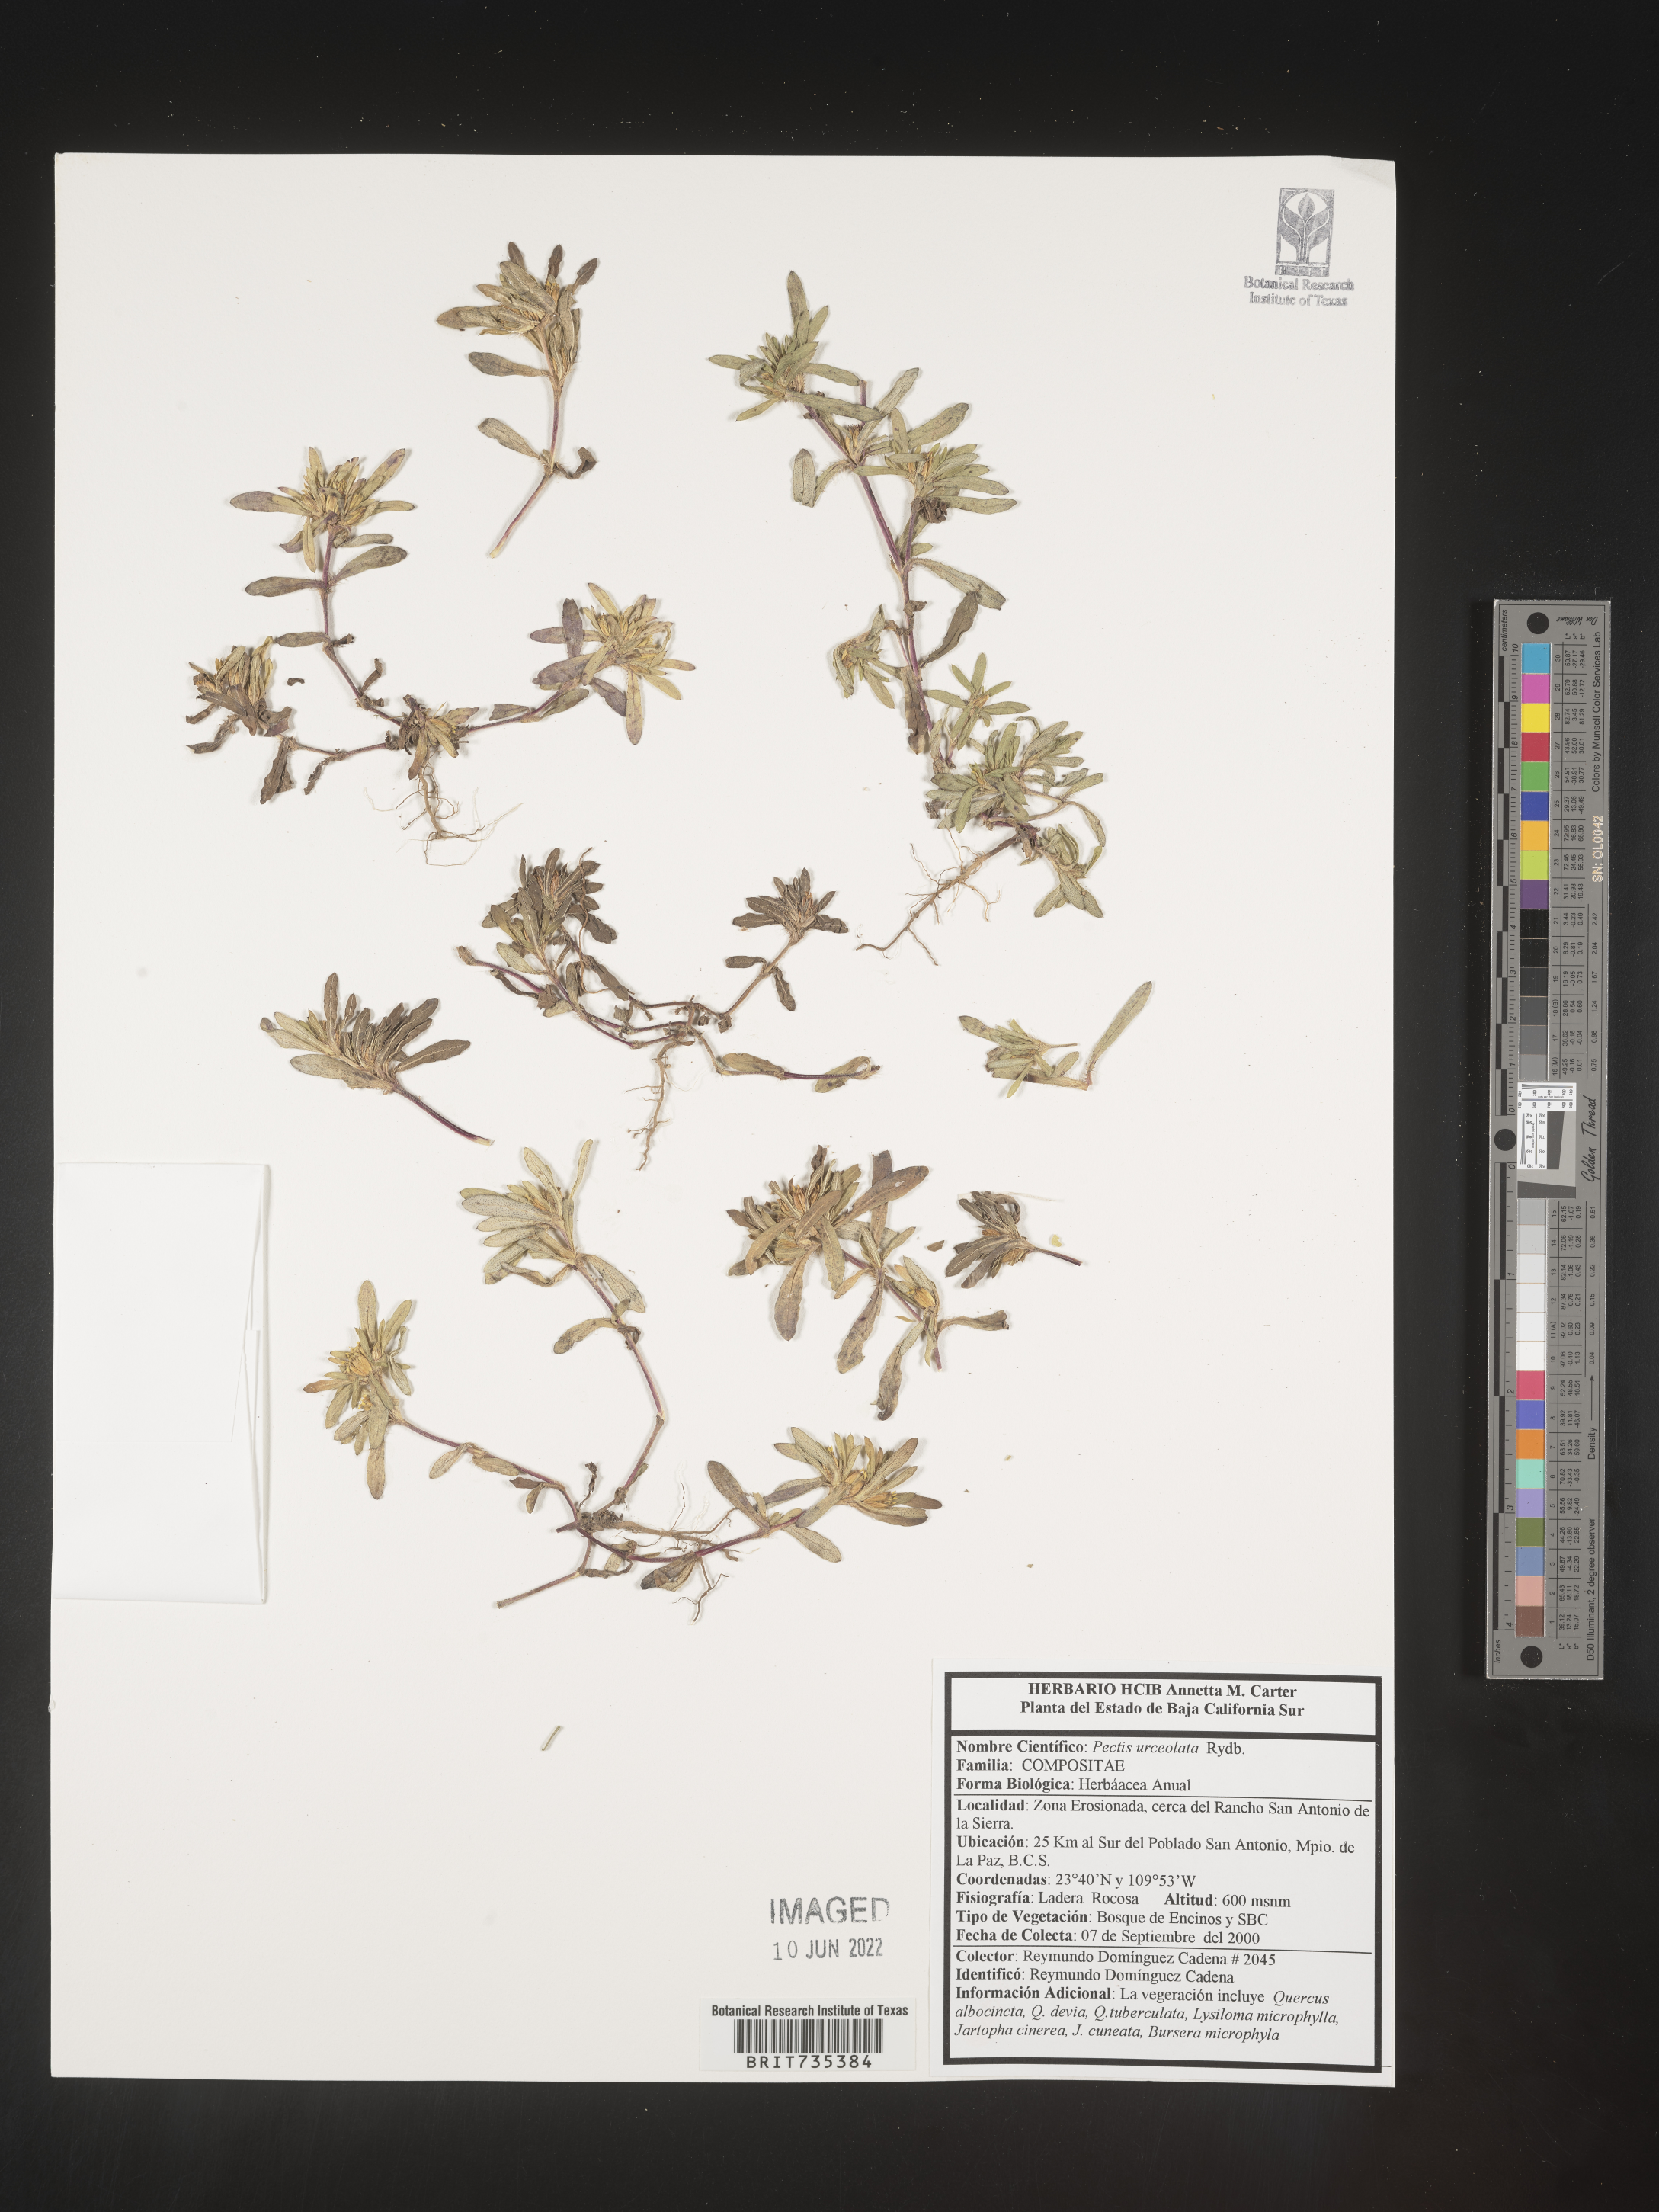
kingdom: Plantae
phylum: Tracheophyta
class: Magnoliopsida
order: Asterales
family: Asteraceae
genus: Pectis
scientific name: Pectis
